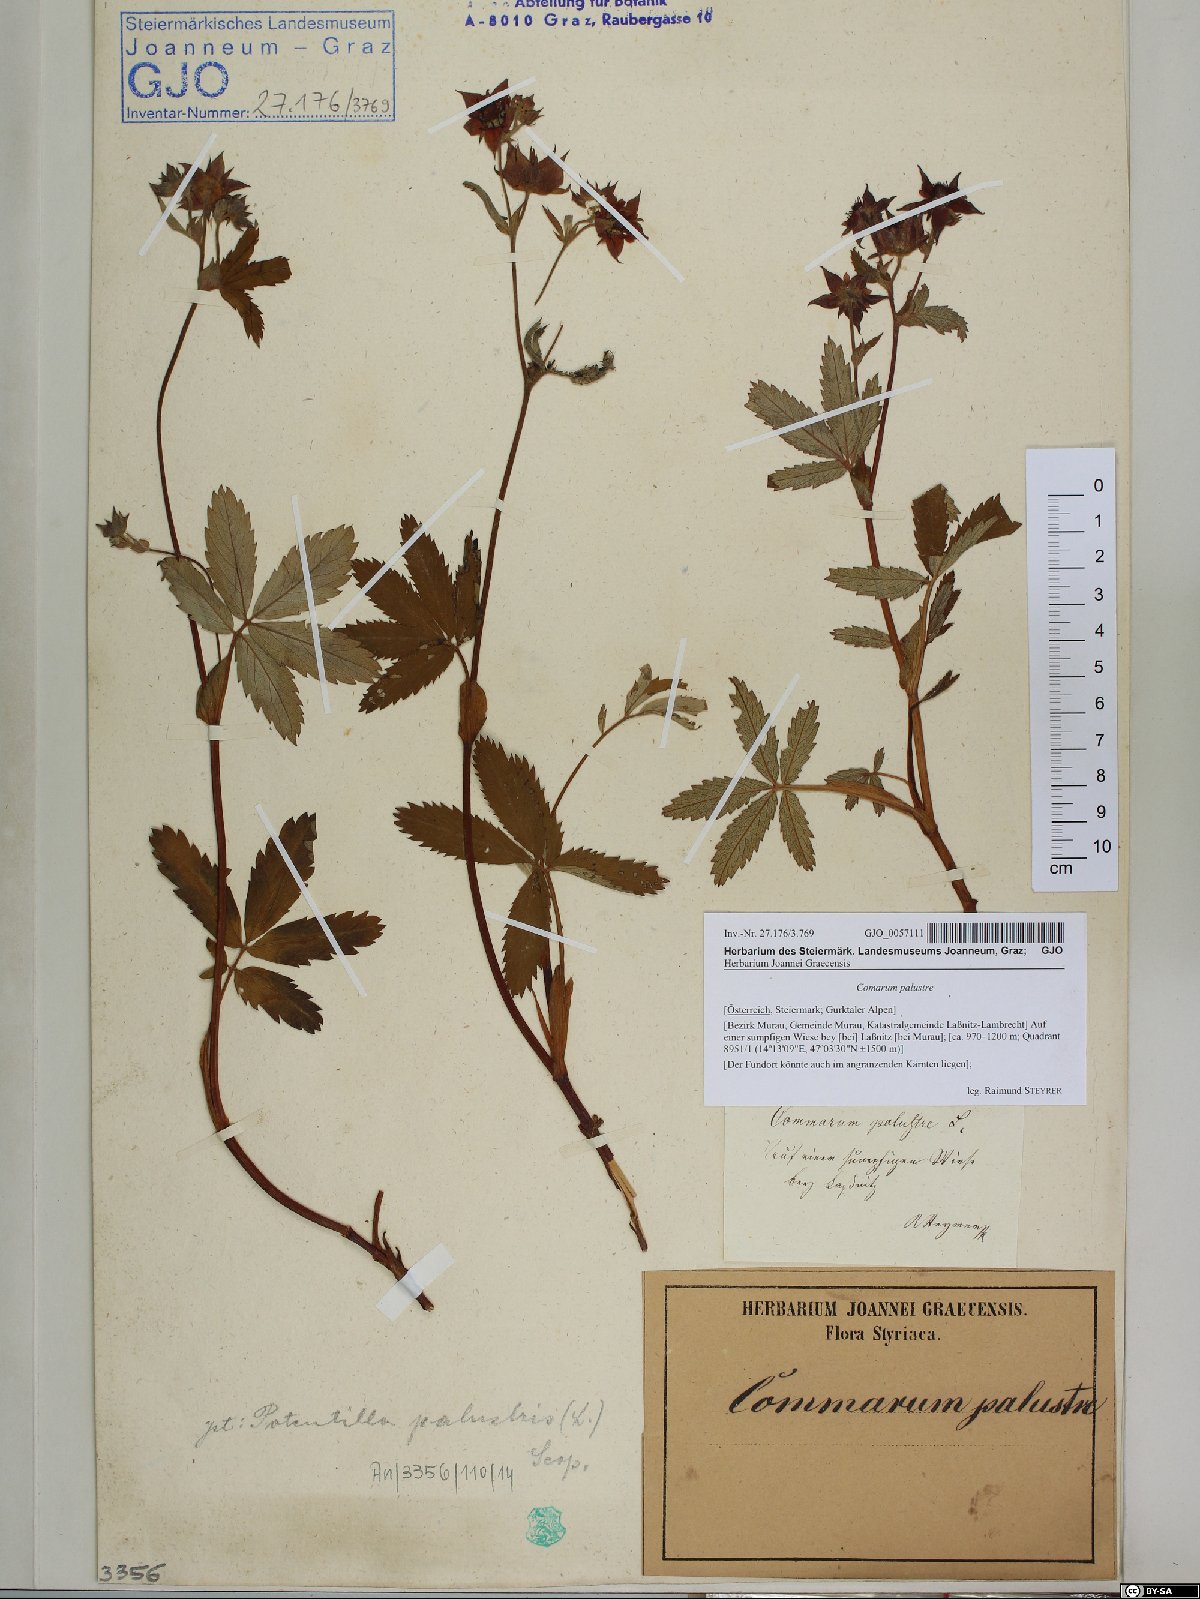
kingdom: Plantae
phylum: Tracheophyta
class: Magnoliopsida
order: Rosales
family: Rosaceae
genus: Comarum
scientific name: Comarum palustre
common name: Marsh cinquefoil
